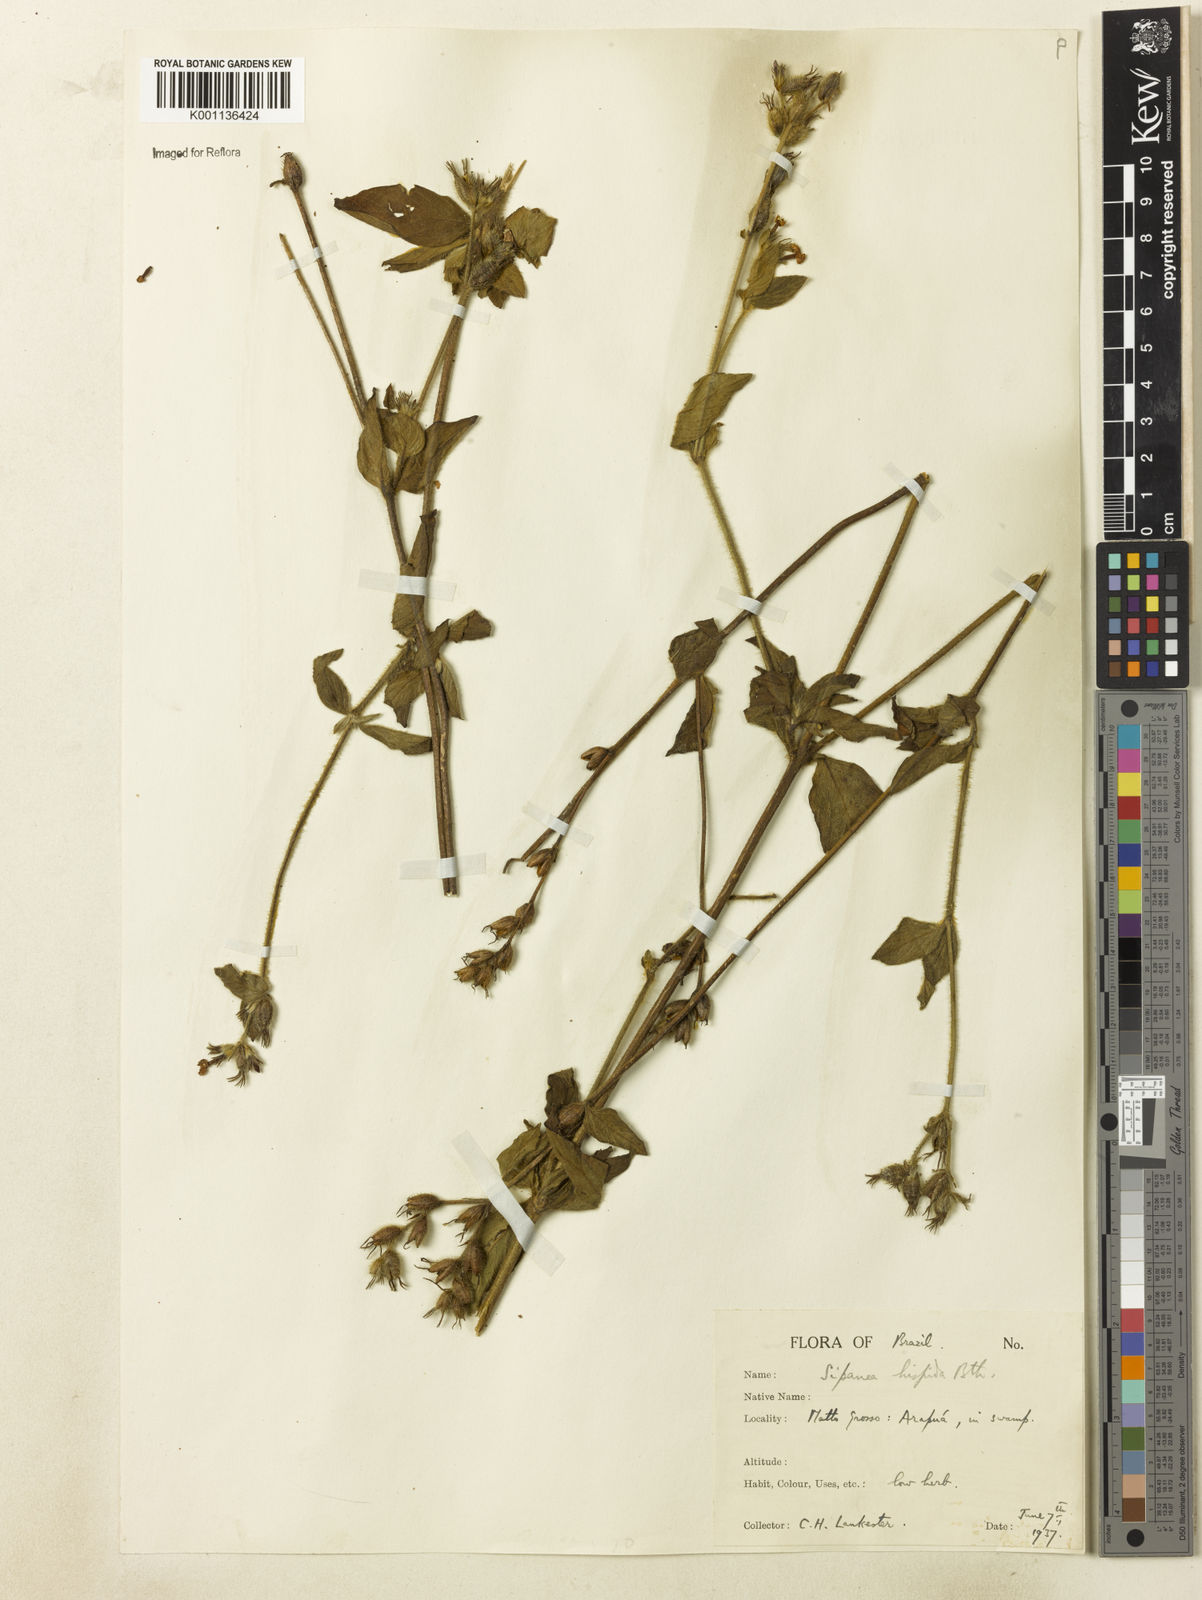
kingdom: Plantae
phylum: Tracheophyta
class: Magnoliopsida
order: Gentianales
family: Rubiaceae
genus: Sipanea
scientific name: Sipanea hispida
